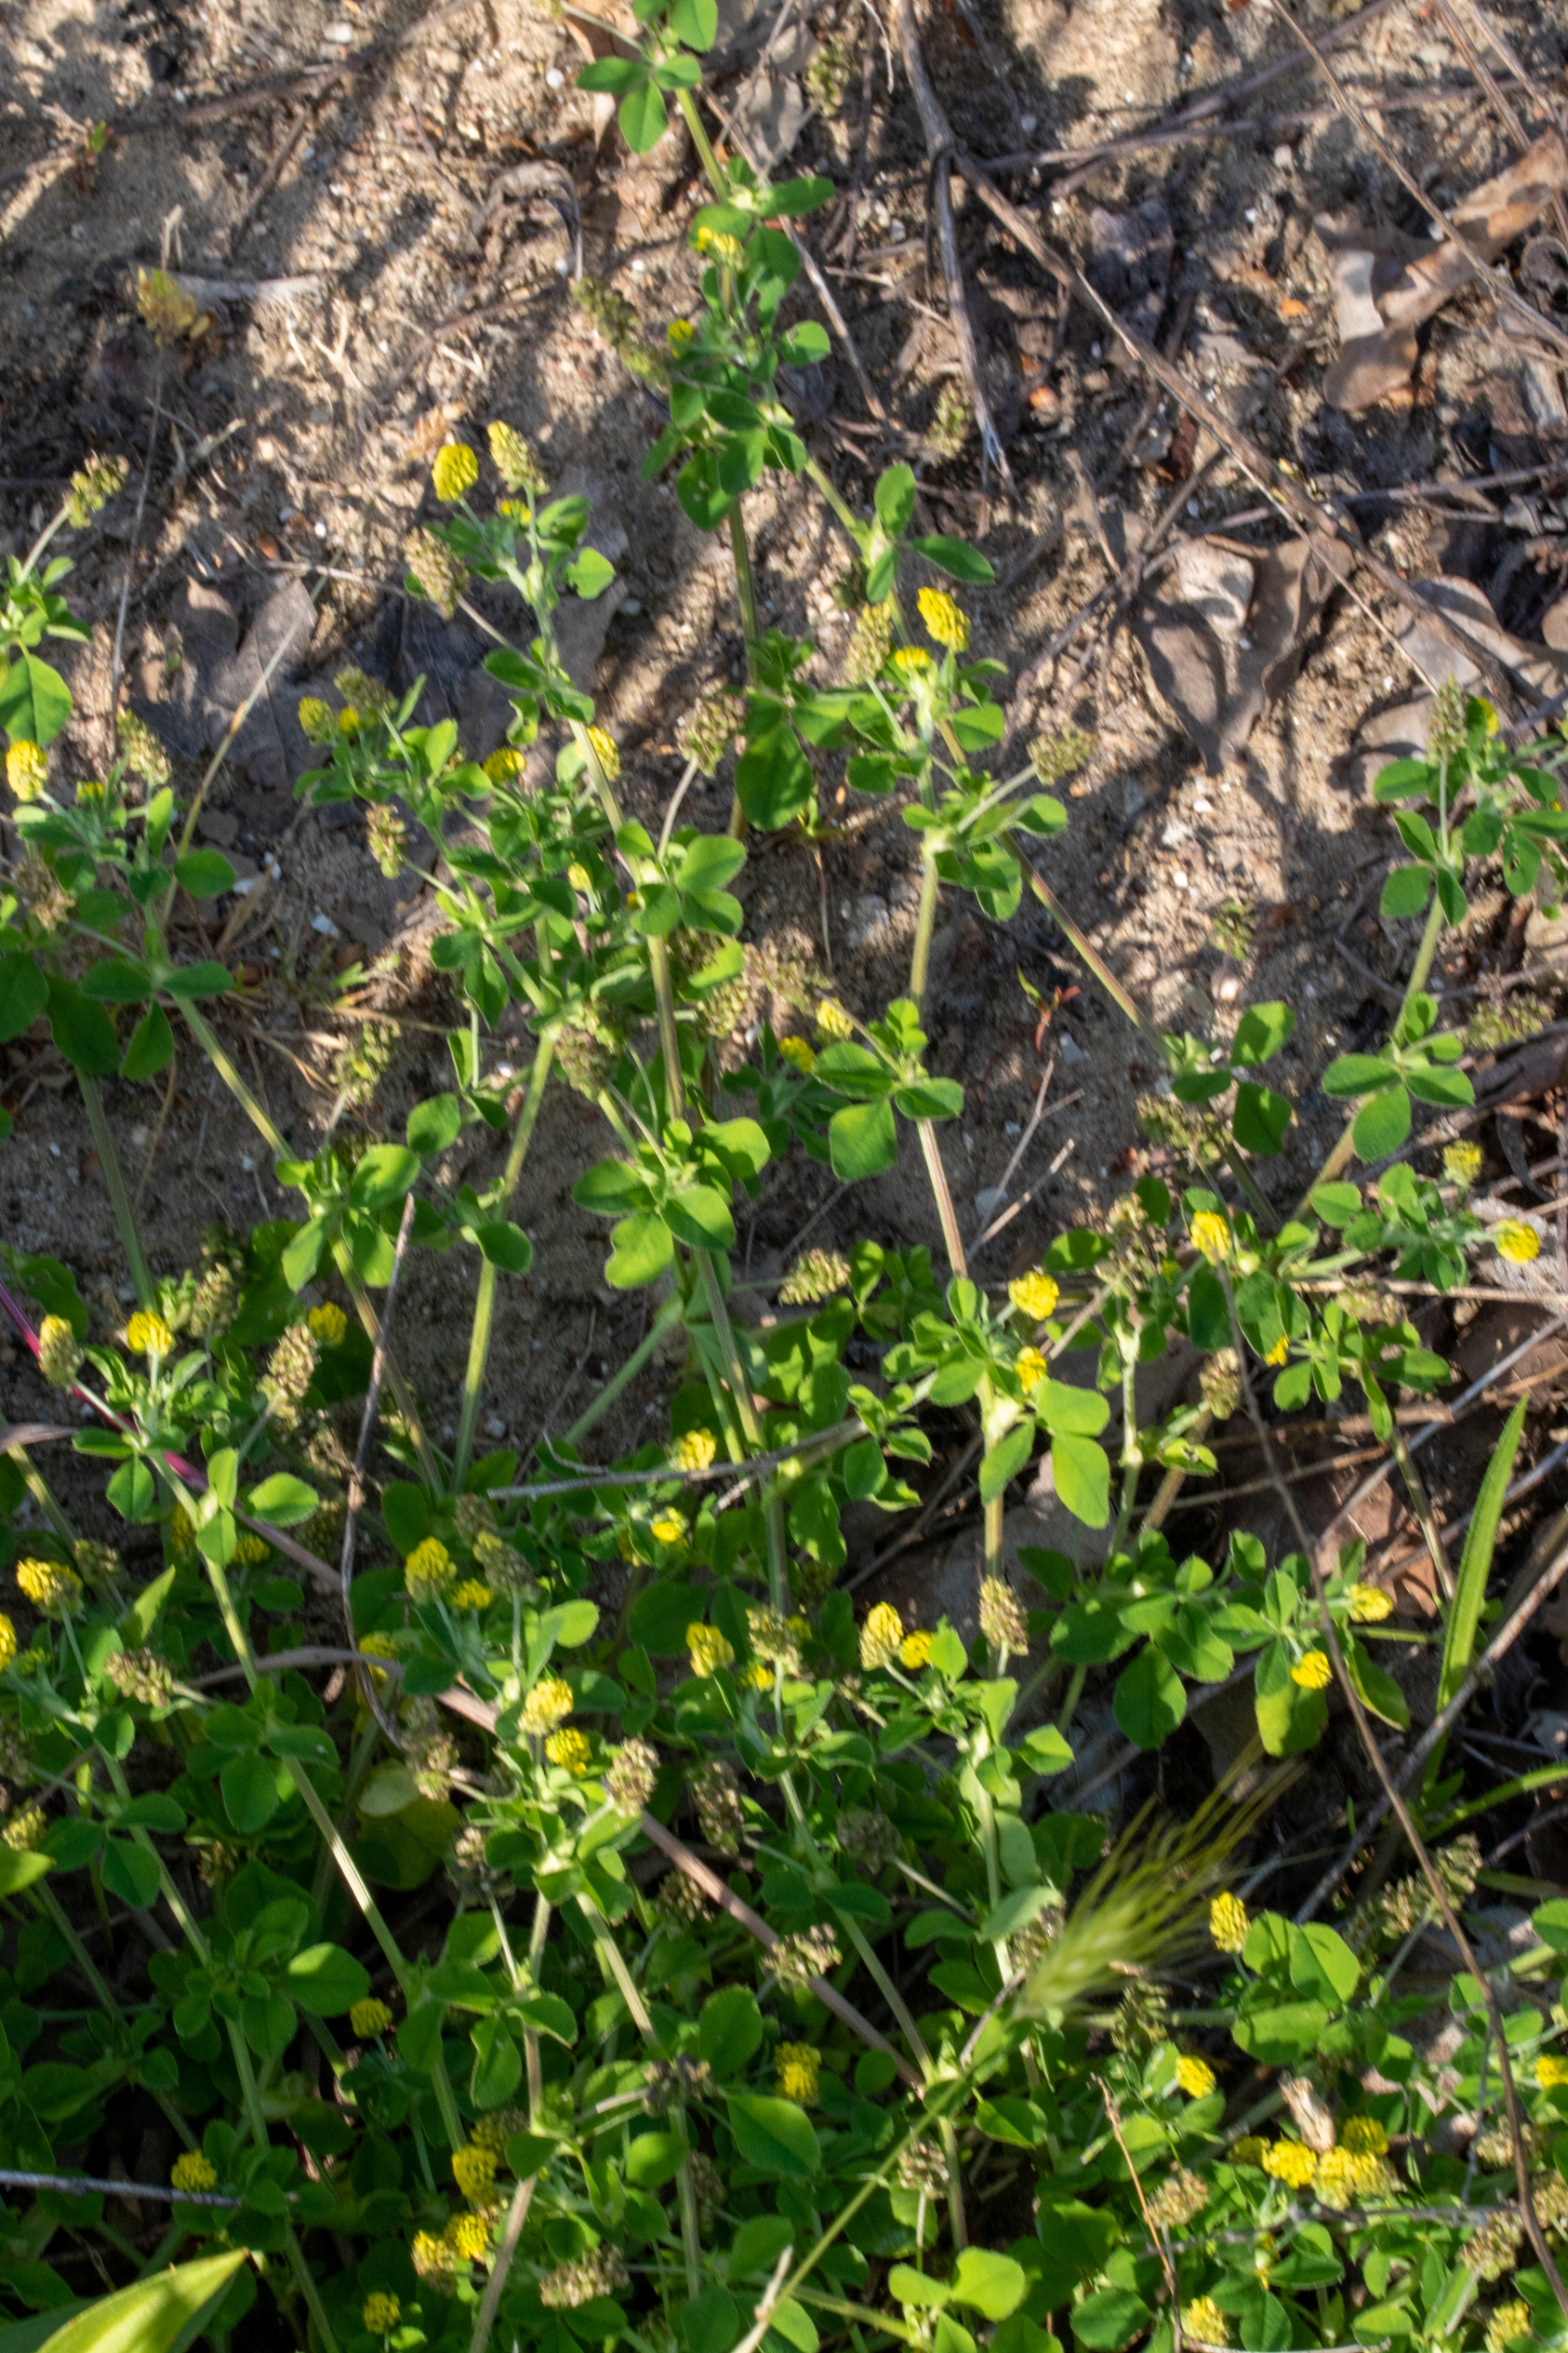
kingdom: Plantae
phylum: Tracheophyta
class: Magnoliopsida
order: Fabales
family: Fabaceae
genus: Medicago
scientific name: Medicago lupulina
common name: Humle-sneglebælg
